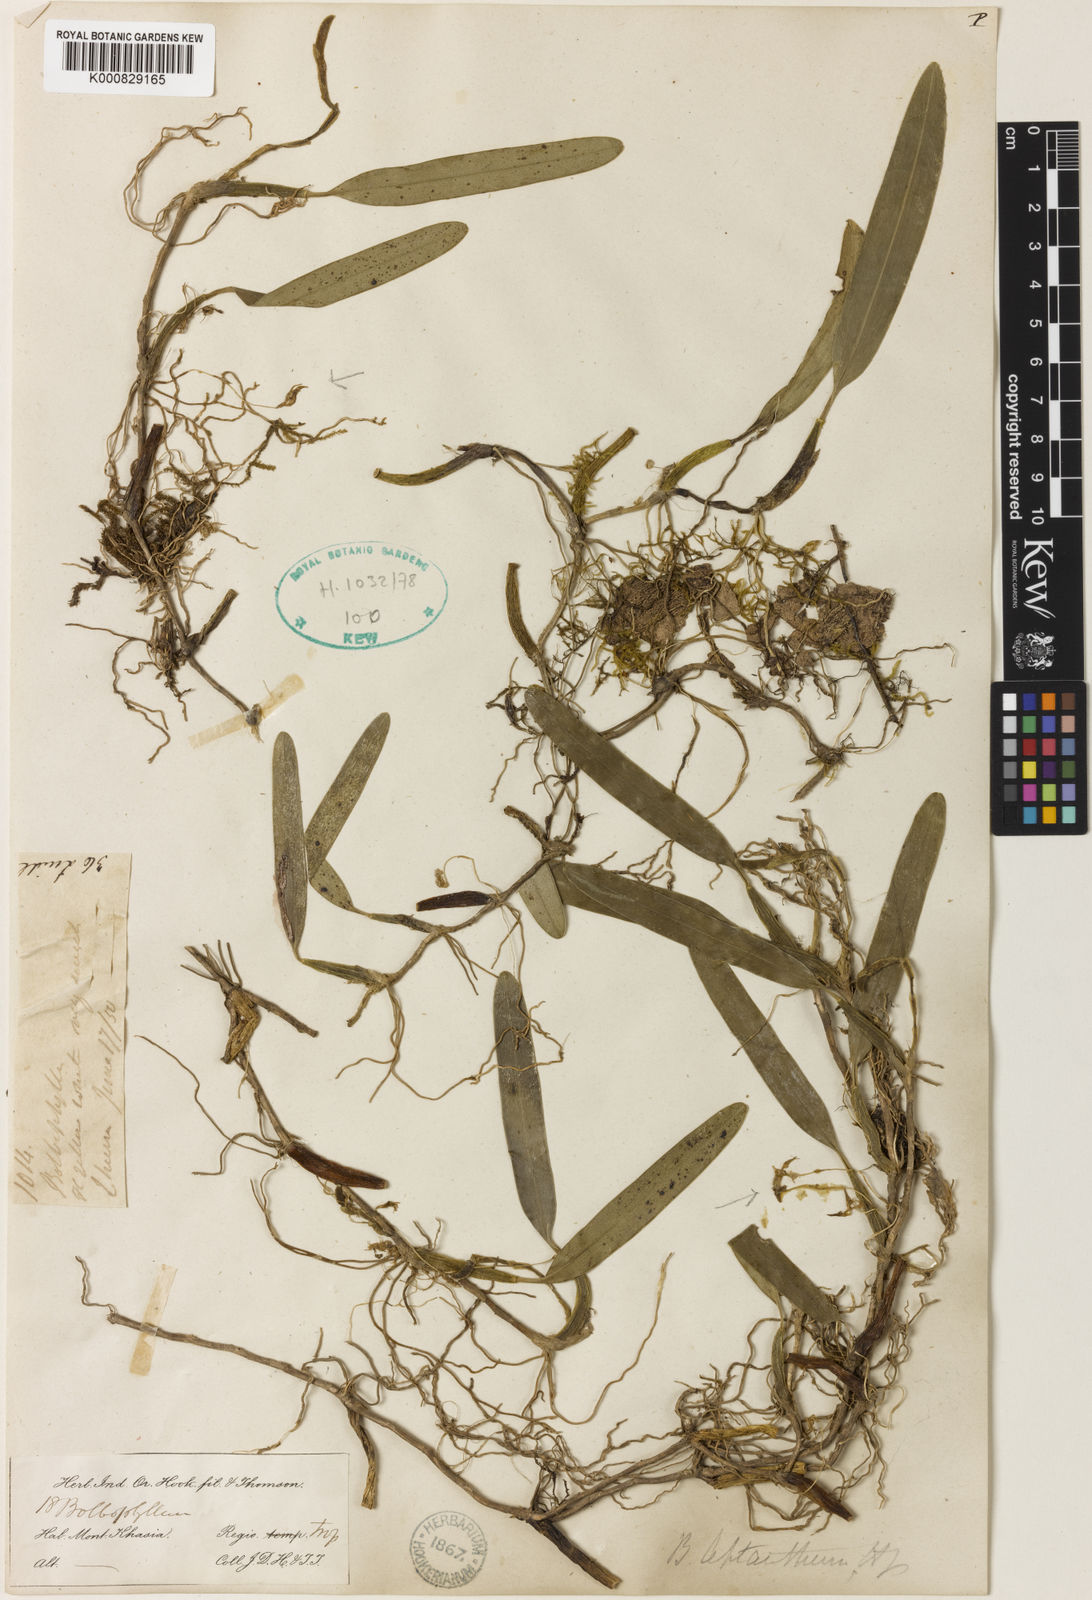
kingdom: Plantae
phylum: Tracheophyta
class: Liliopsida
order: Asparagales
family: Orchidaceae
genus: Bulbophyllum
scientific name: Bulbophyllum leptanthum
